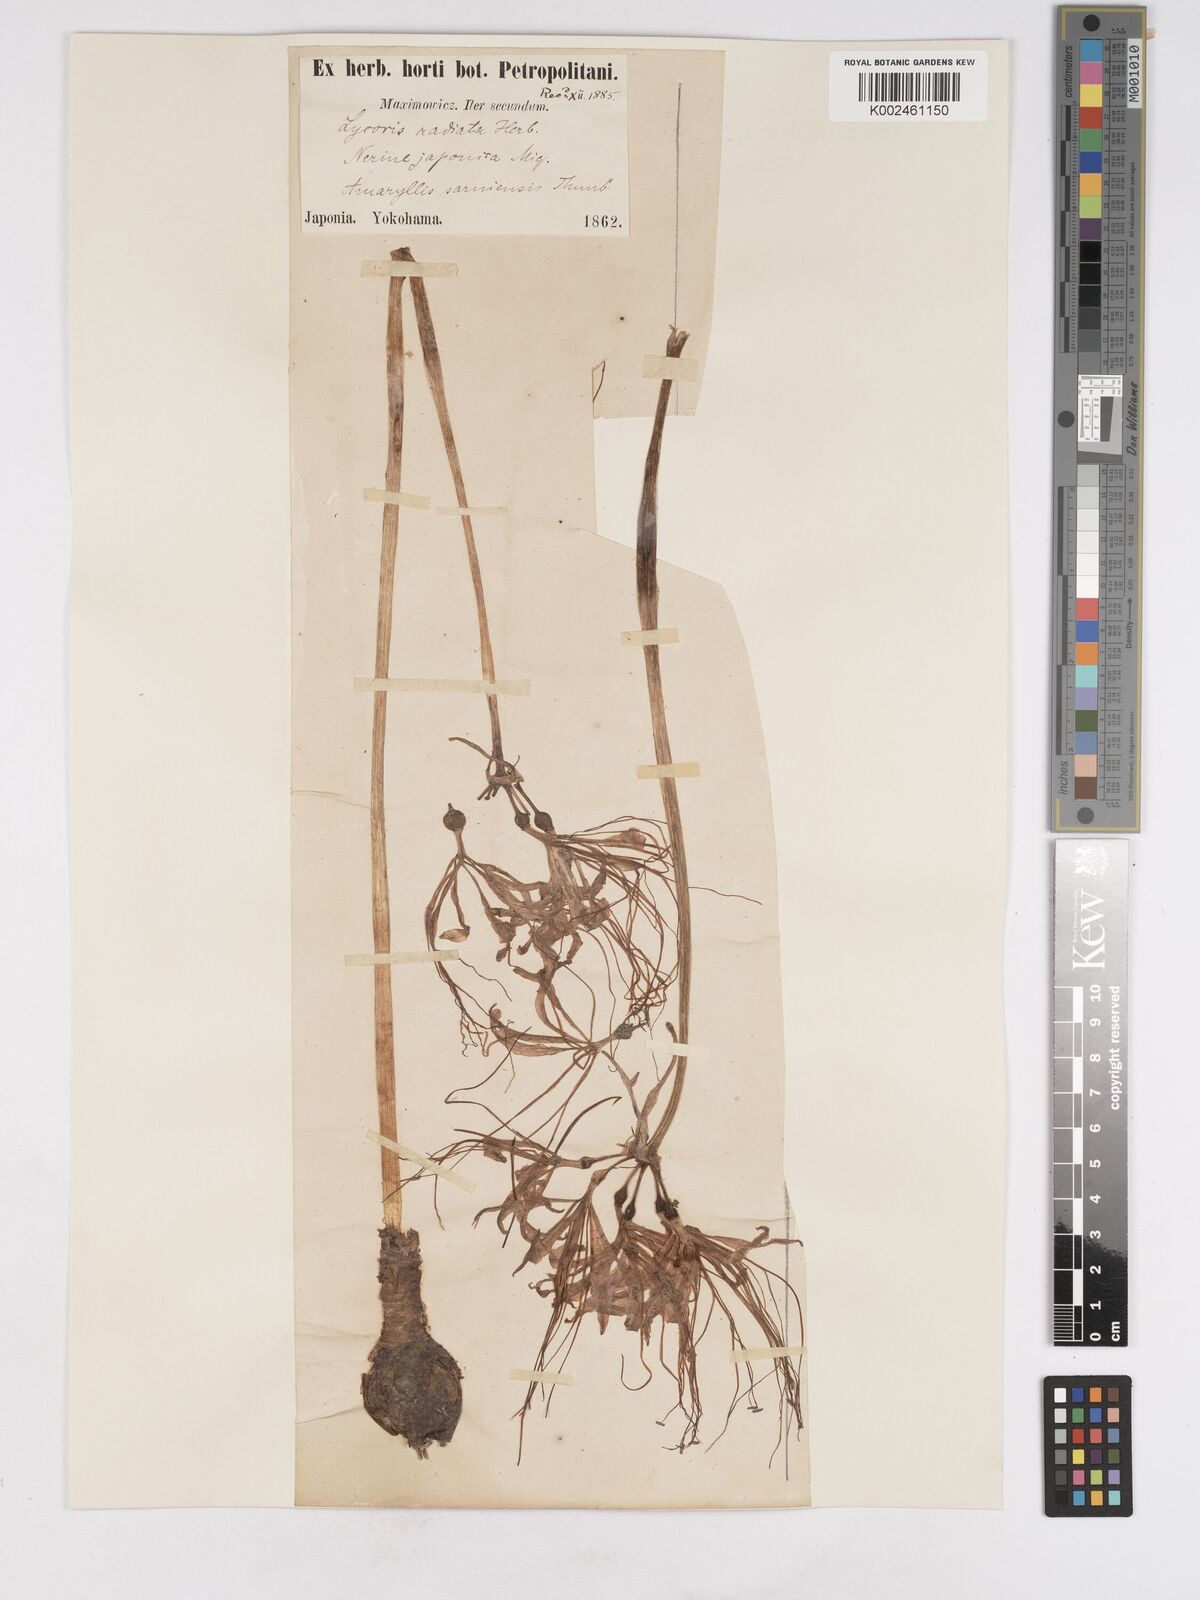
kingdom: Plantae
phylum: Tracheophyta
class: Liliopsida
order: Asparagales
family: Amaryllidaceae
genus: Lycoris
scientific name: Lycoris radiata
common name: Red spider lily
